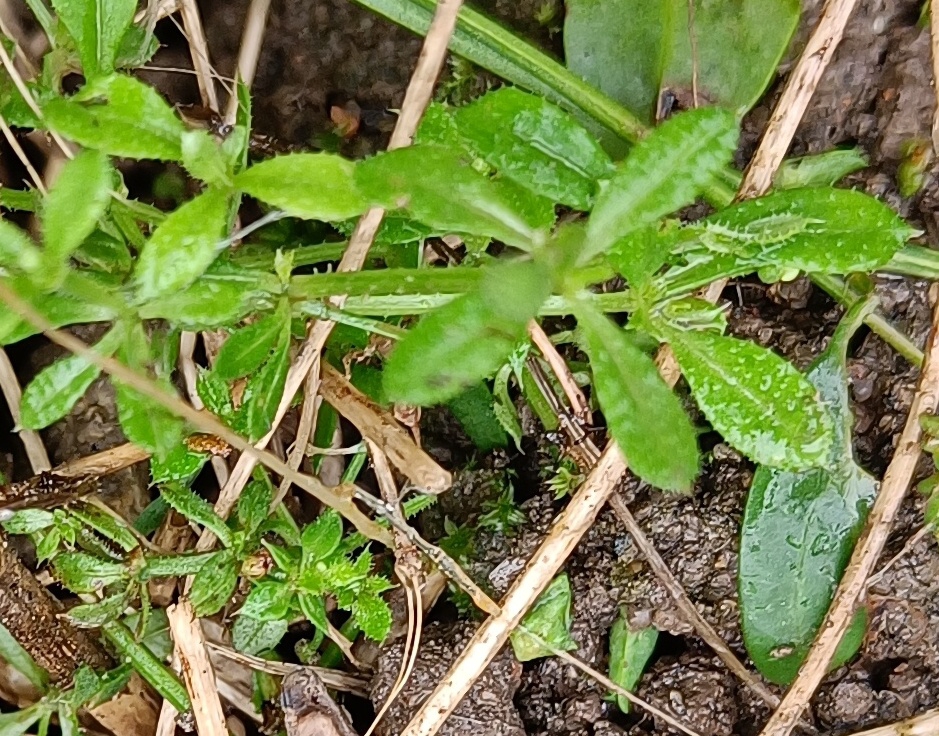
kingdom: Plantae
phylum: Tracheophyta
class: Magnoliopsida
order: Gentianales
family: Rubiaceae
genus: Galium
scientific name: Galium aparine
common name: Burre-snerre
